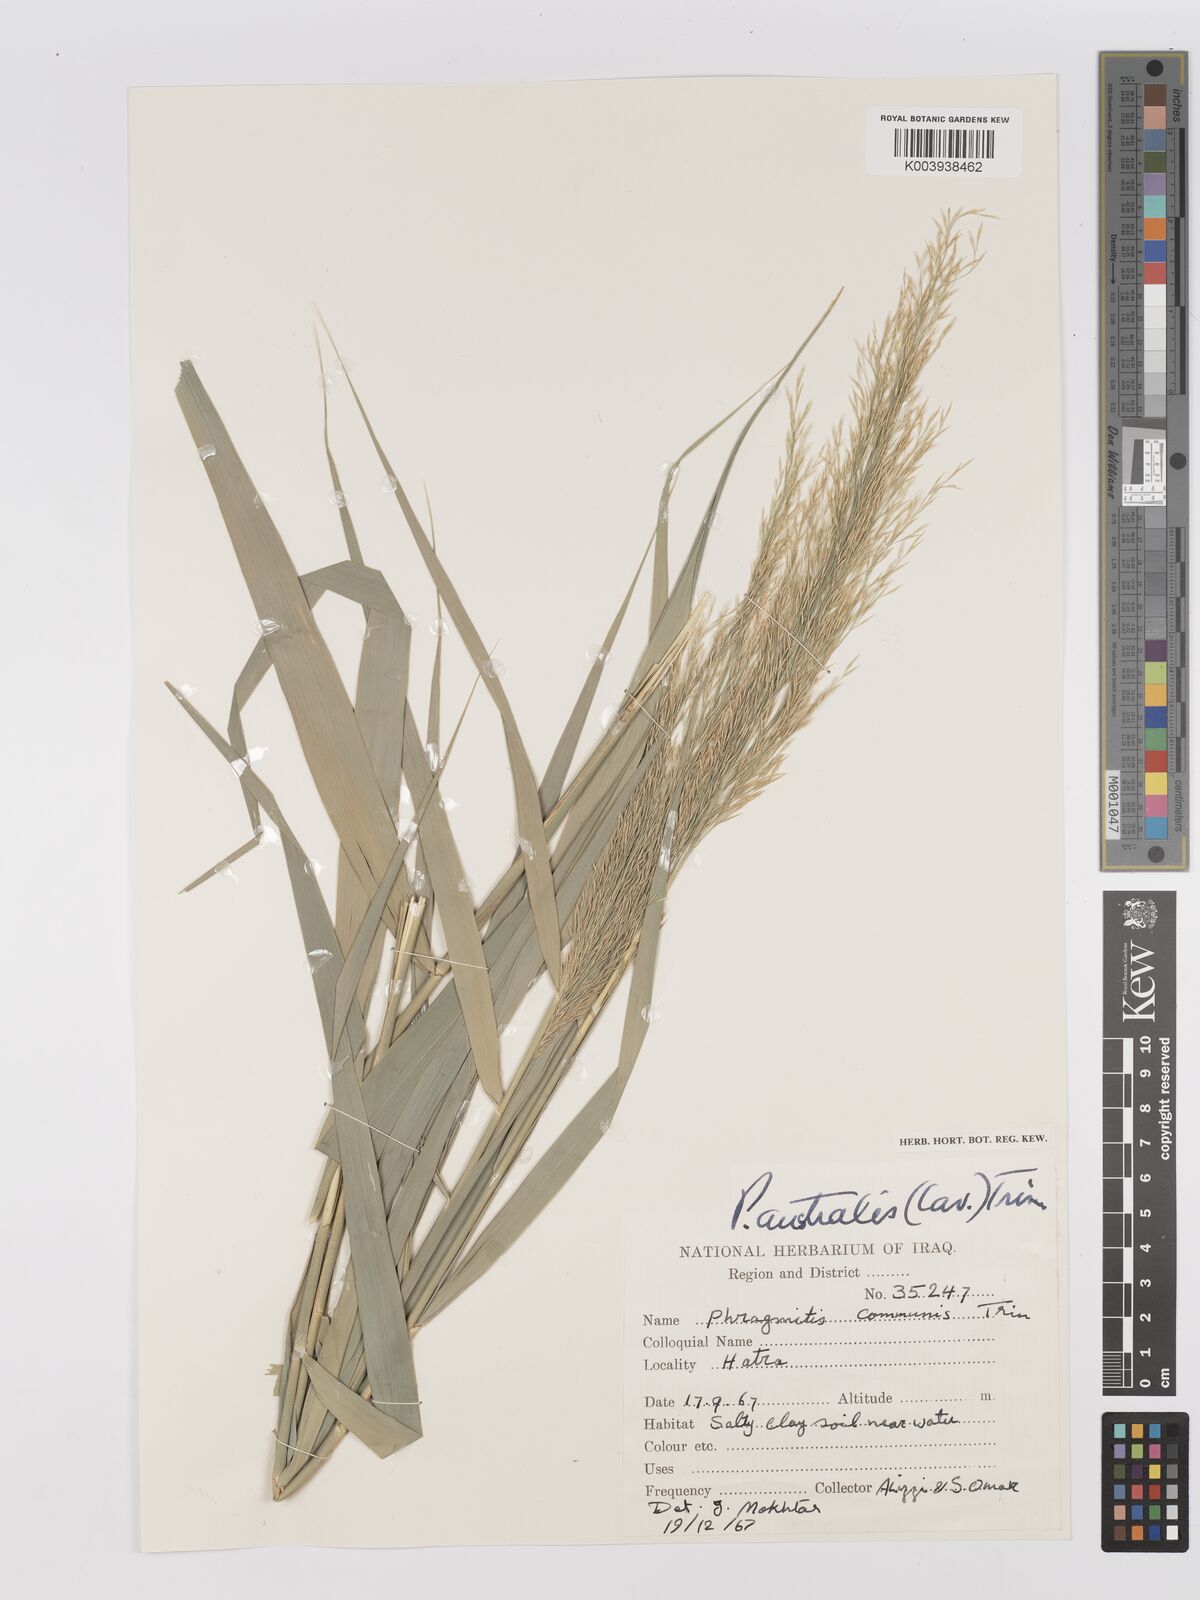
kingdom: Plantae
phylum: Tracheophyta
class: Liliopsida
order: Poales
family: Poaceae
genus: Phragmites
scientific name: Phragmites australis
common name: Common reed
